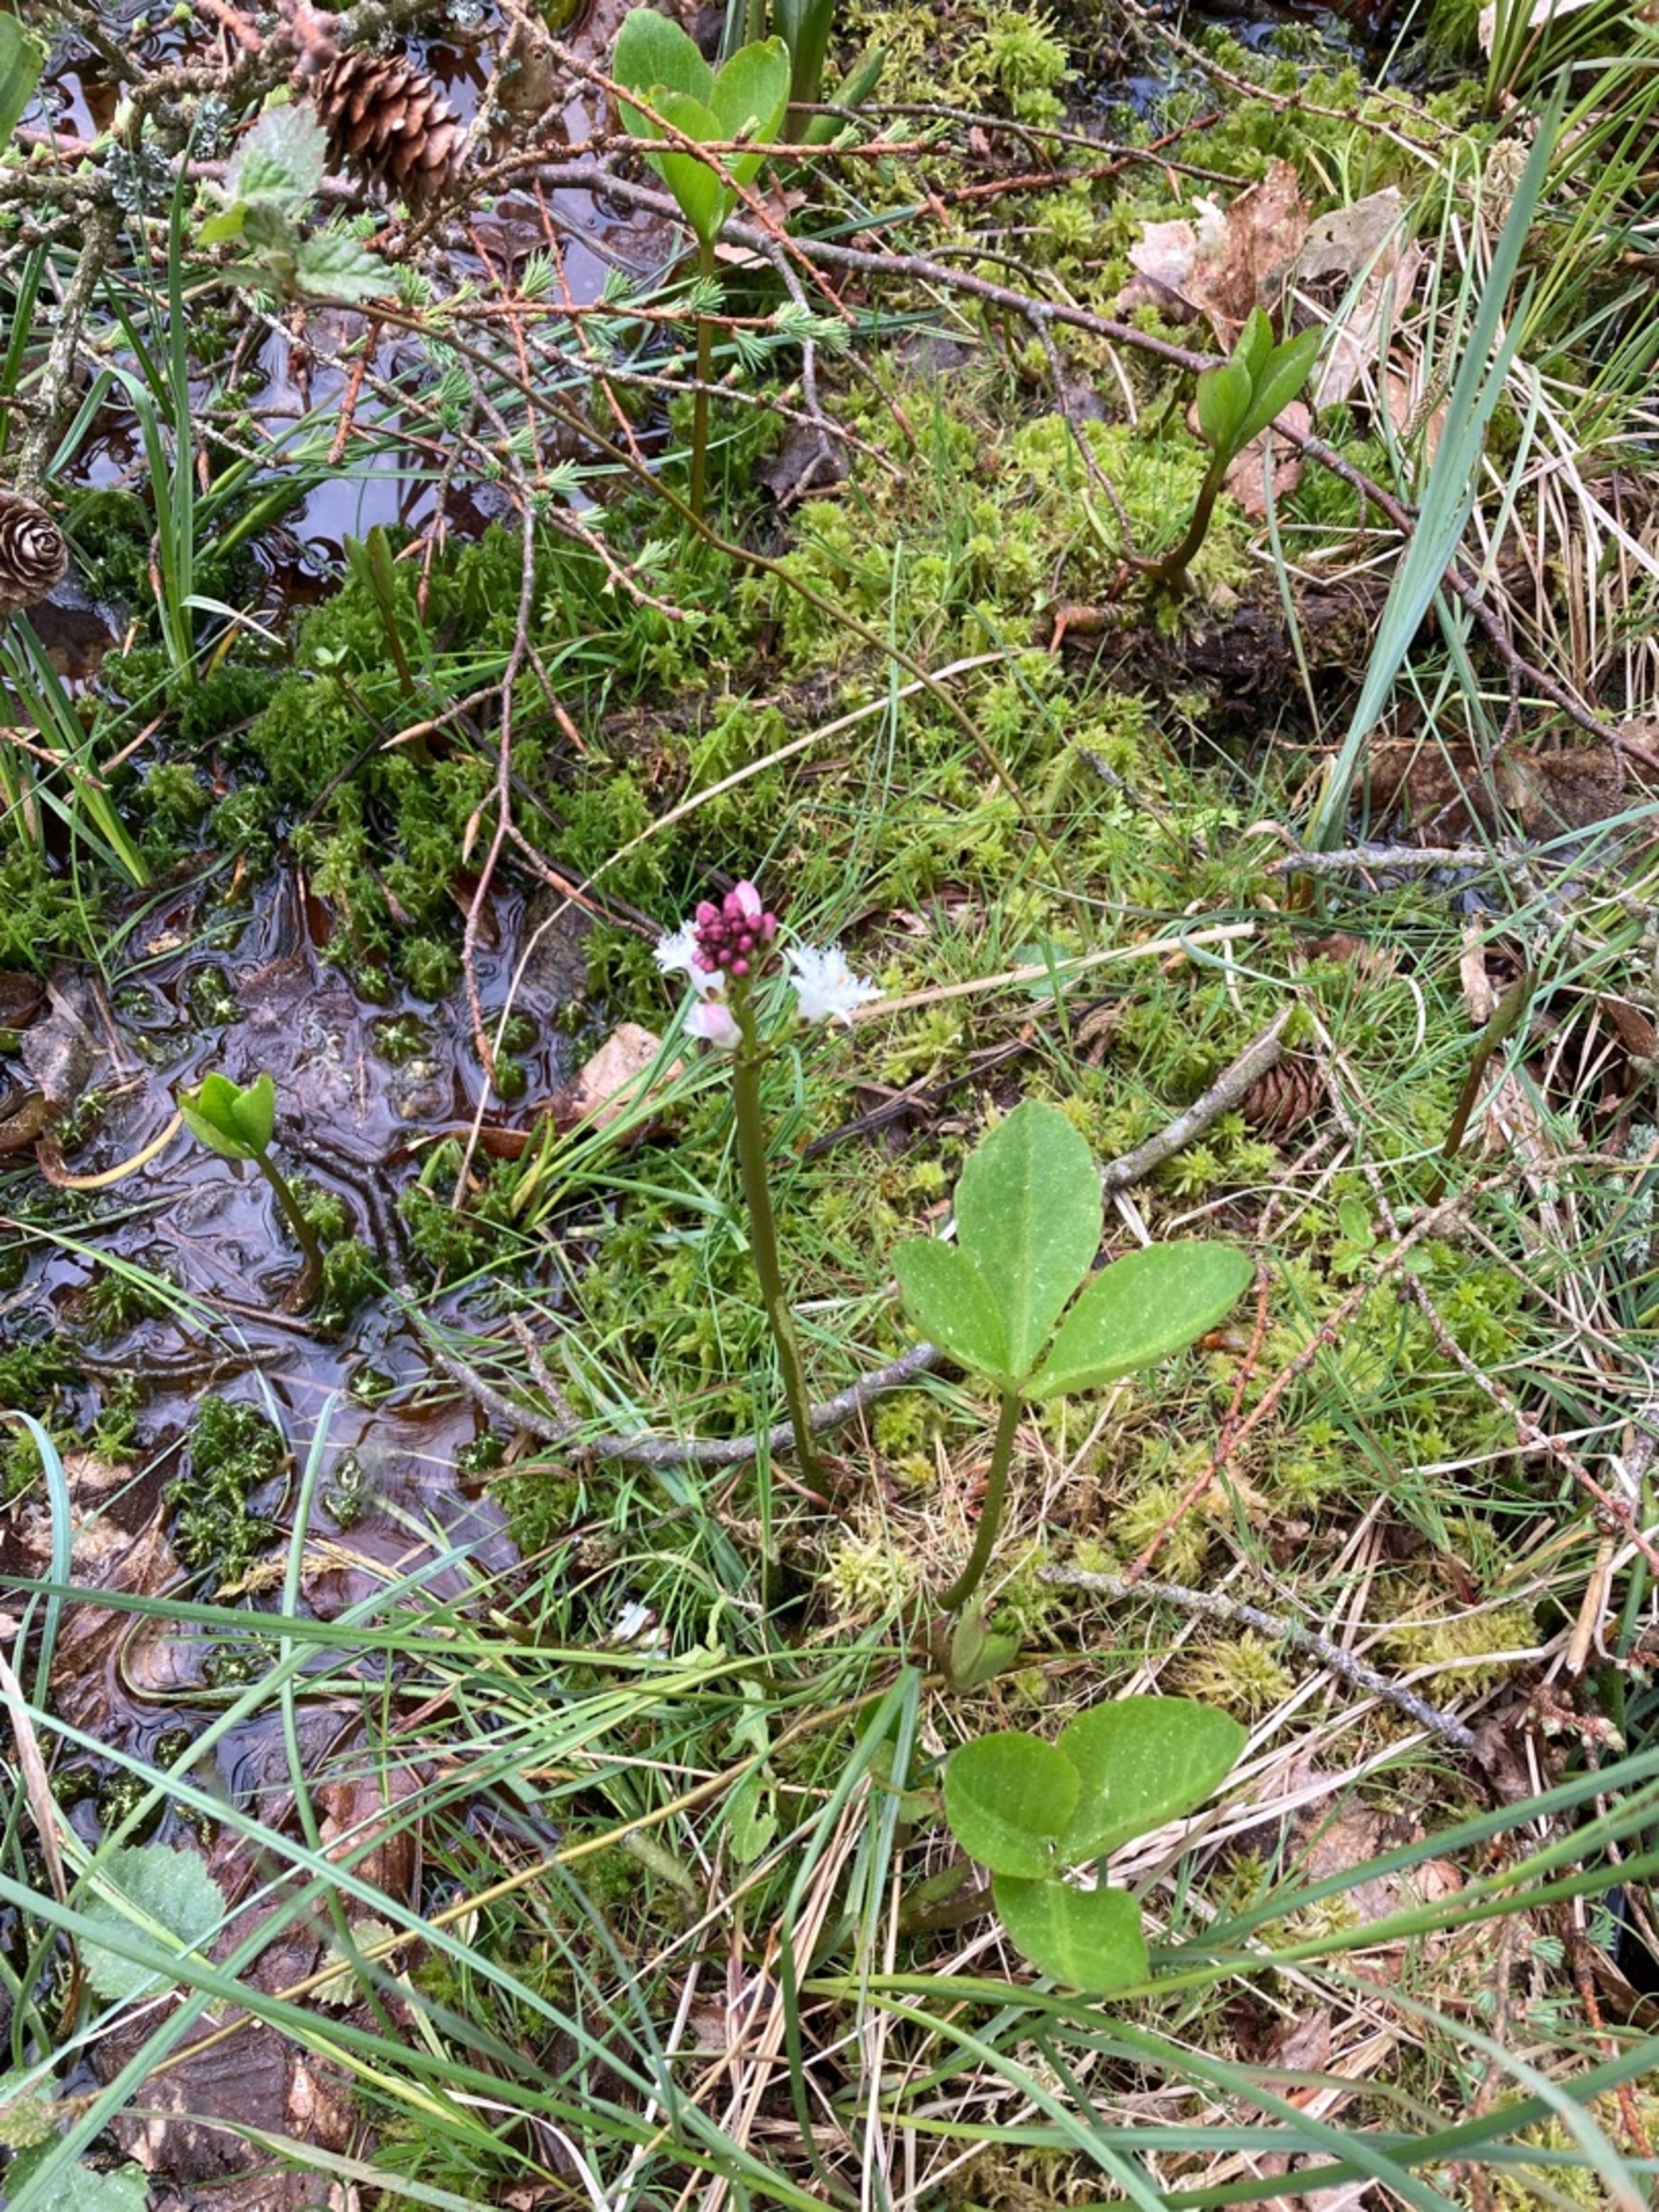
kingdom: Plantae
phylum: Tracheophyta
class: Magnoliopsida
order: Asterales
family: Menyanthaceae
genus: Menyanthes
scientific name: Menyanthes trifoliata
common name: Bukkeblad
